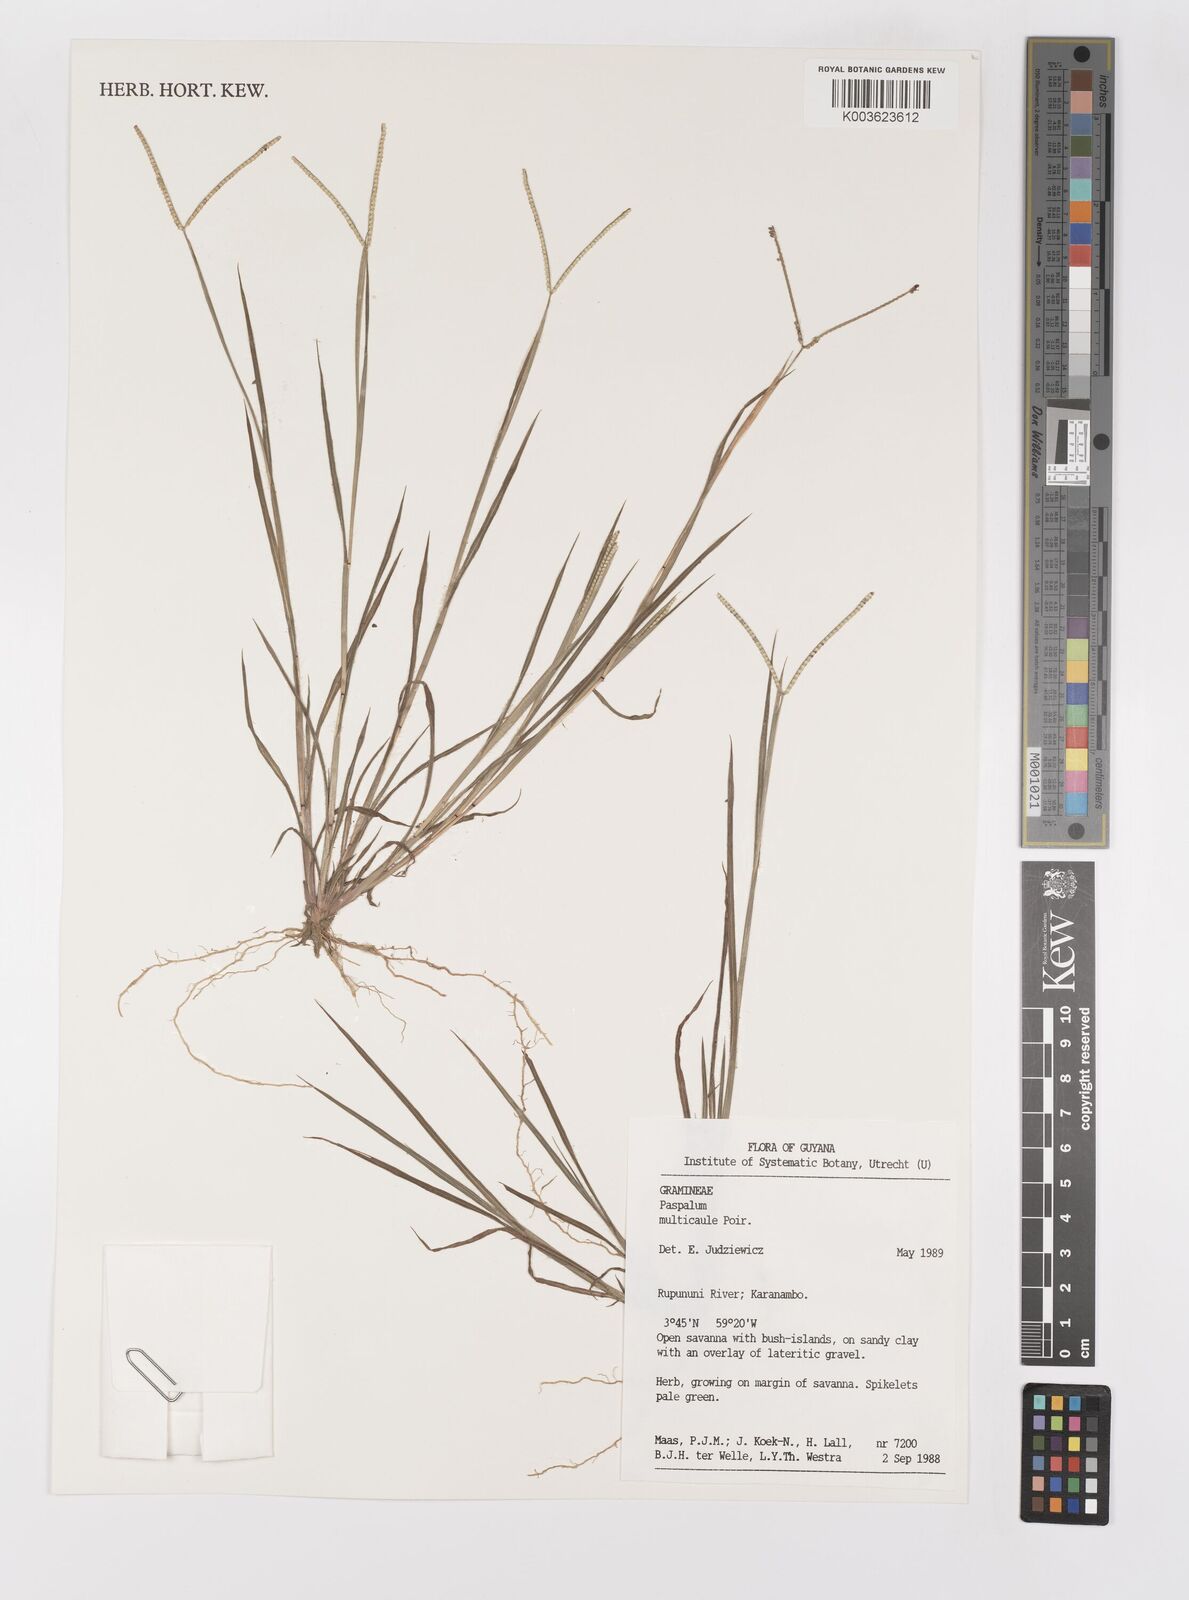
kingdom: Plantae
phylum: Tracheophyta
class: Liliopsida
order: Poales
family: Poaceae
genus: Paspalum
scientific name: Paspalum multicaule
